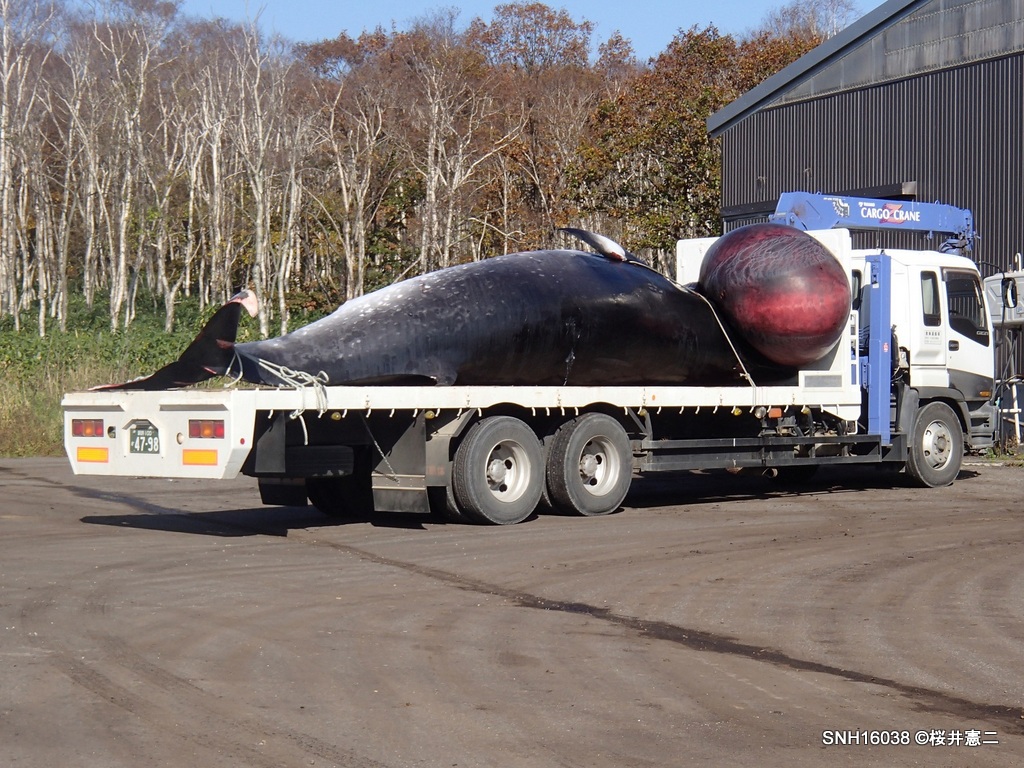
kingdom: Animalia
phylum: Chordata
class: Mammalia
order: Cetacea
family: Balaenopteridae
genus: Balaenoptera
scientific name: Balaenoptera acutorostrata
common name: Minke whale
